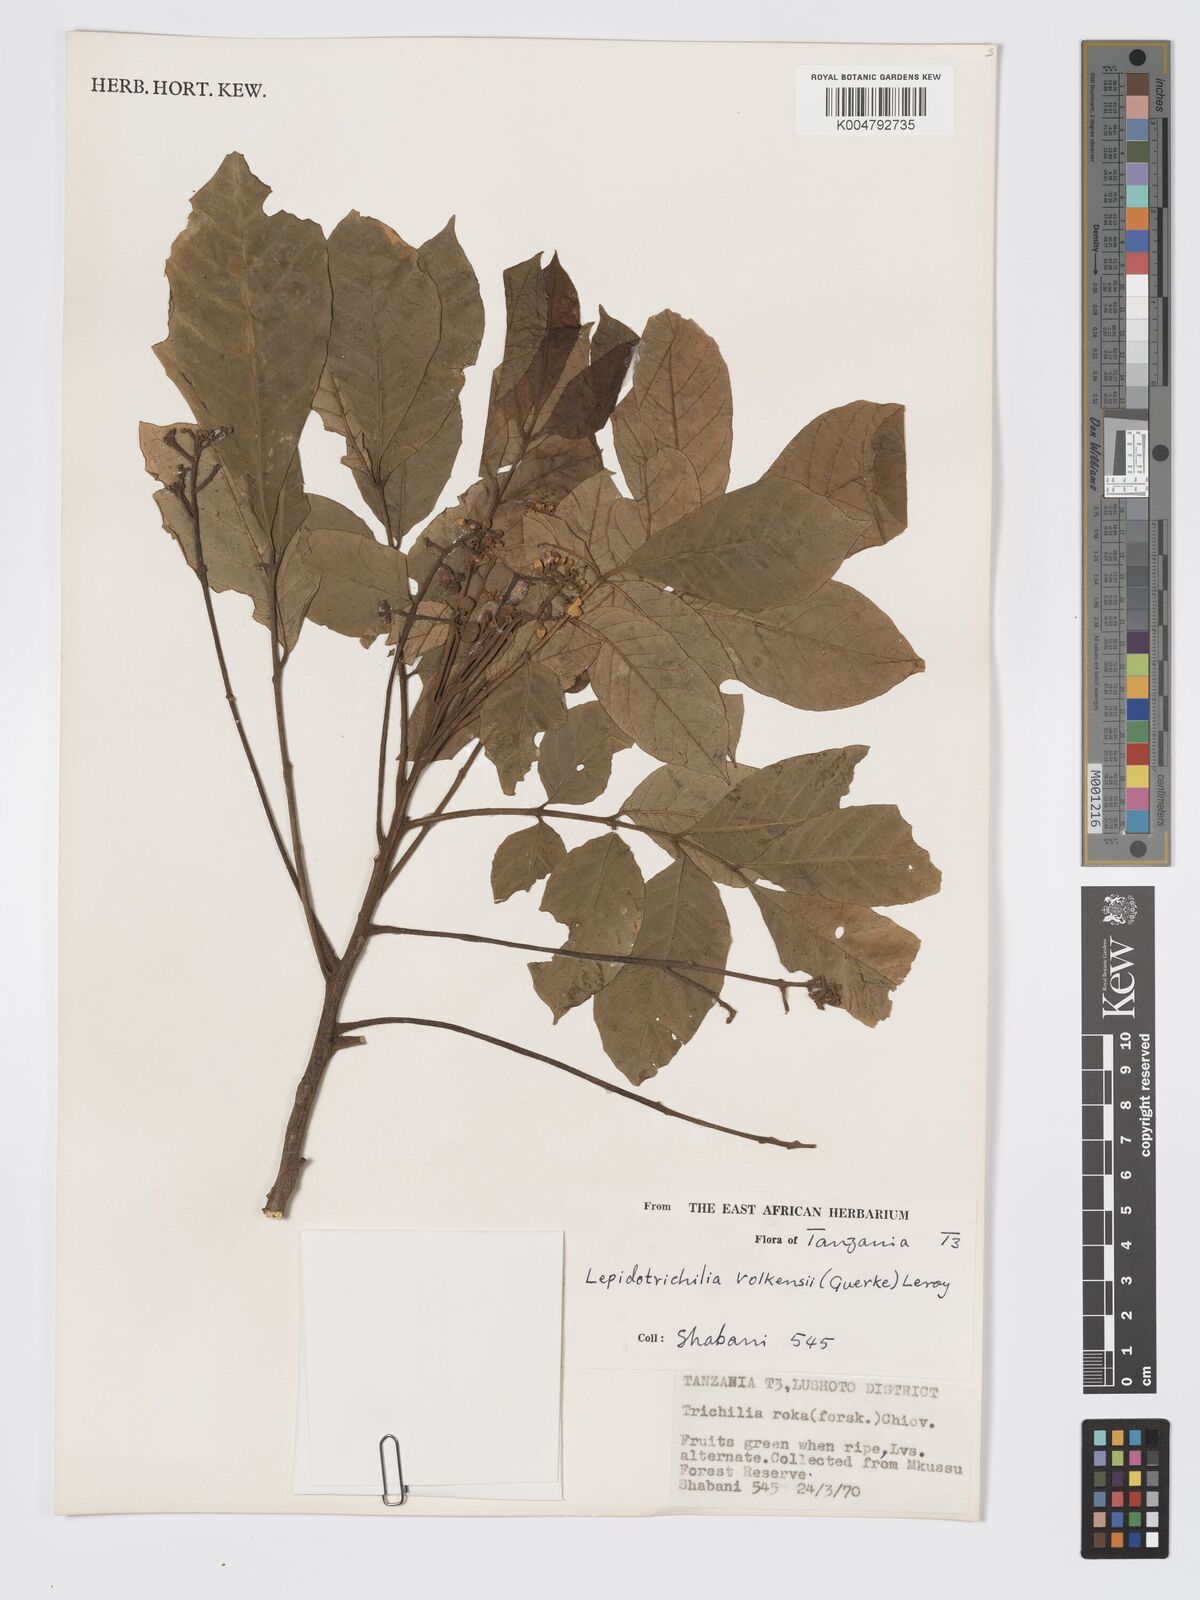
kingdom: Plantae
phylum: Tracheophyta
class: Magnoliopsida
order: Sapindales
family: Meliaceae
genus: Lepidotrichilia
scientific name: Lepidotrichilia volkensii
